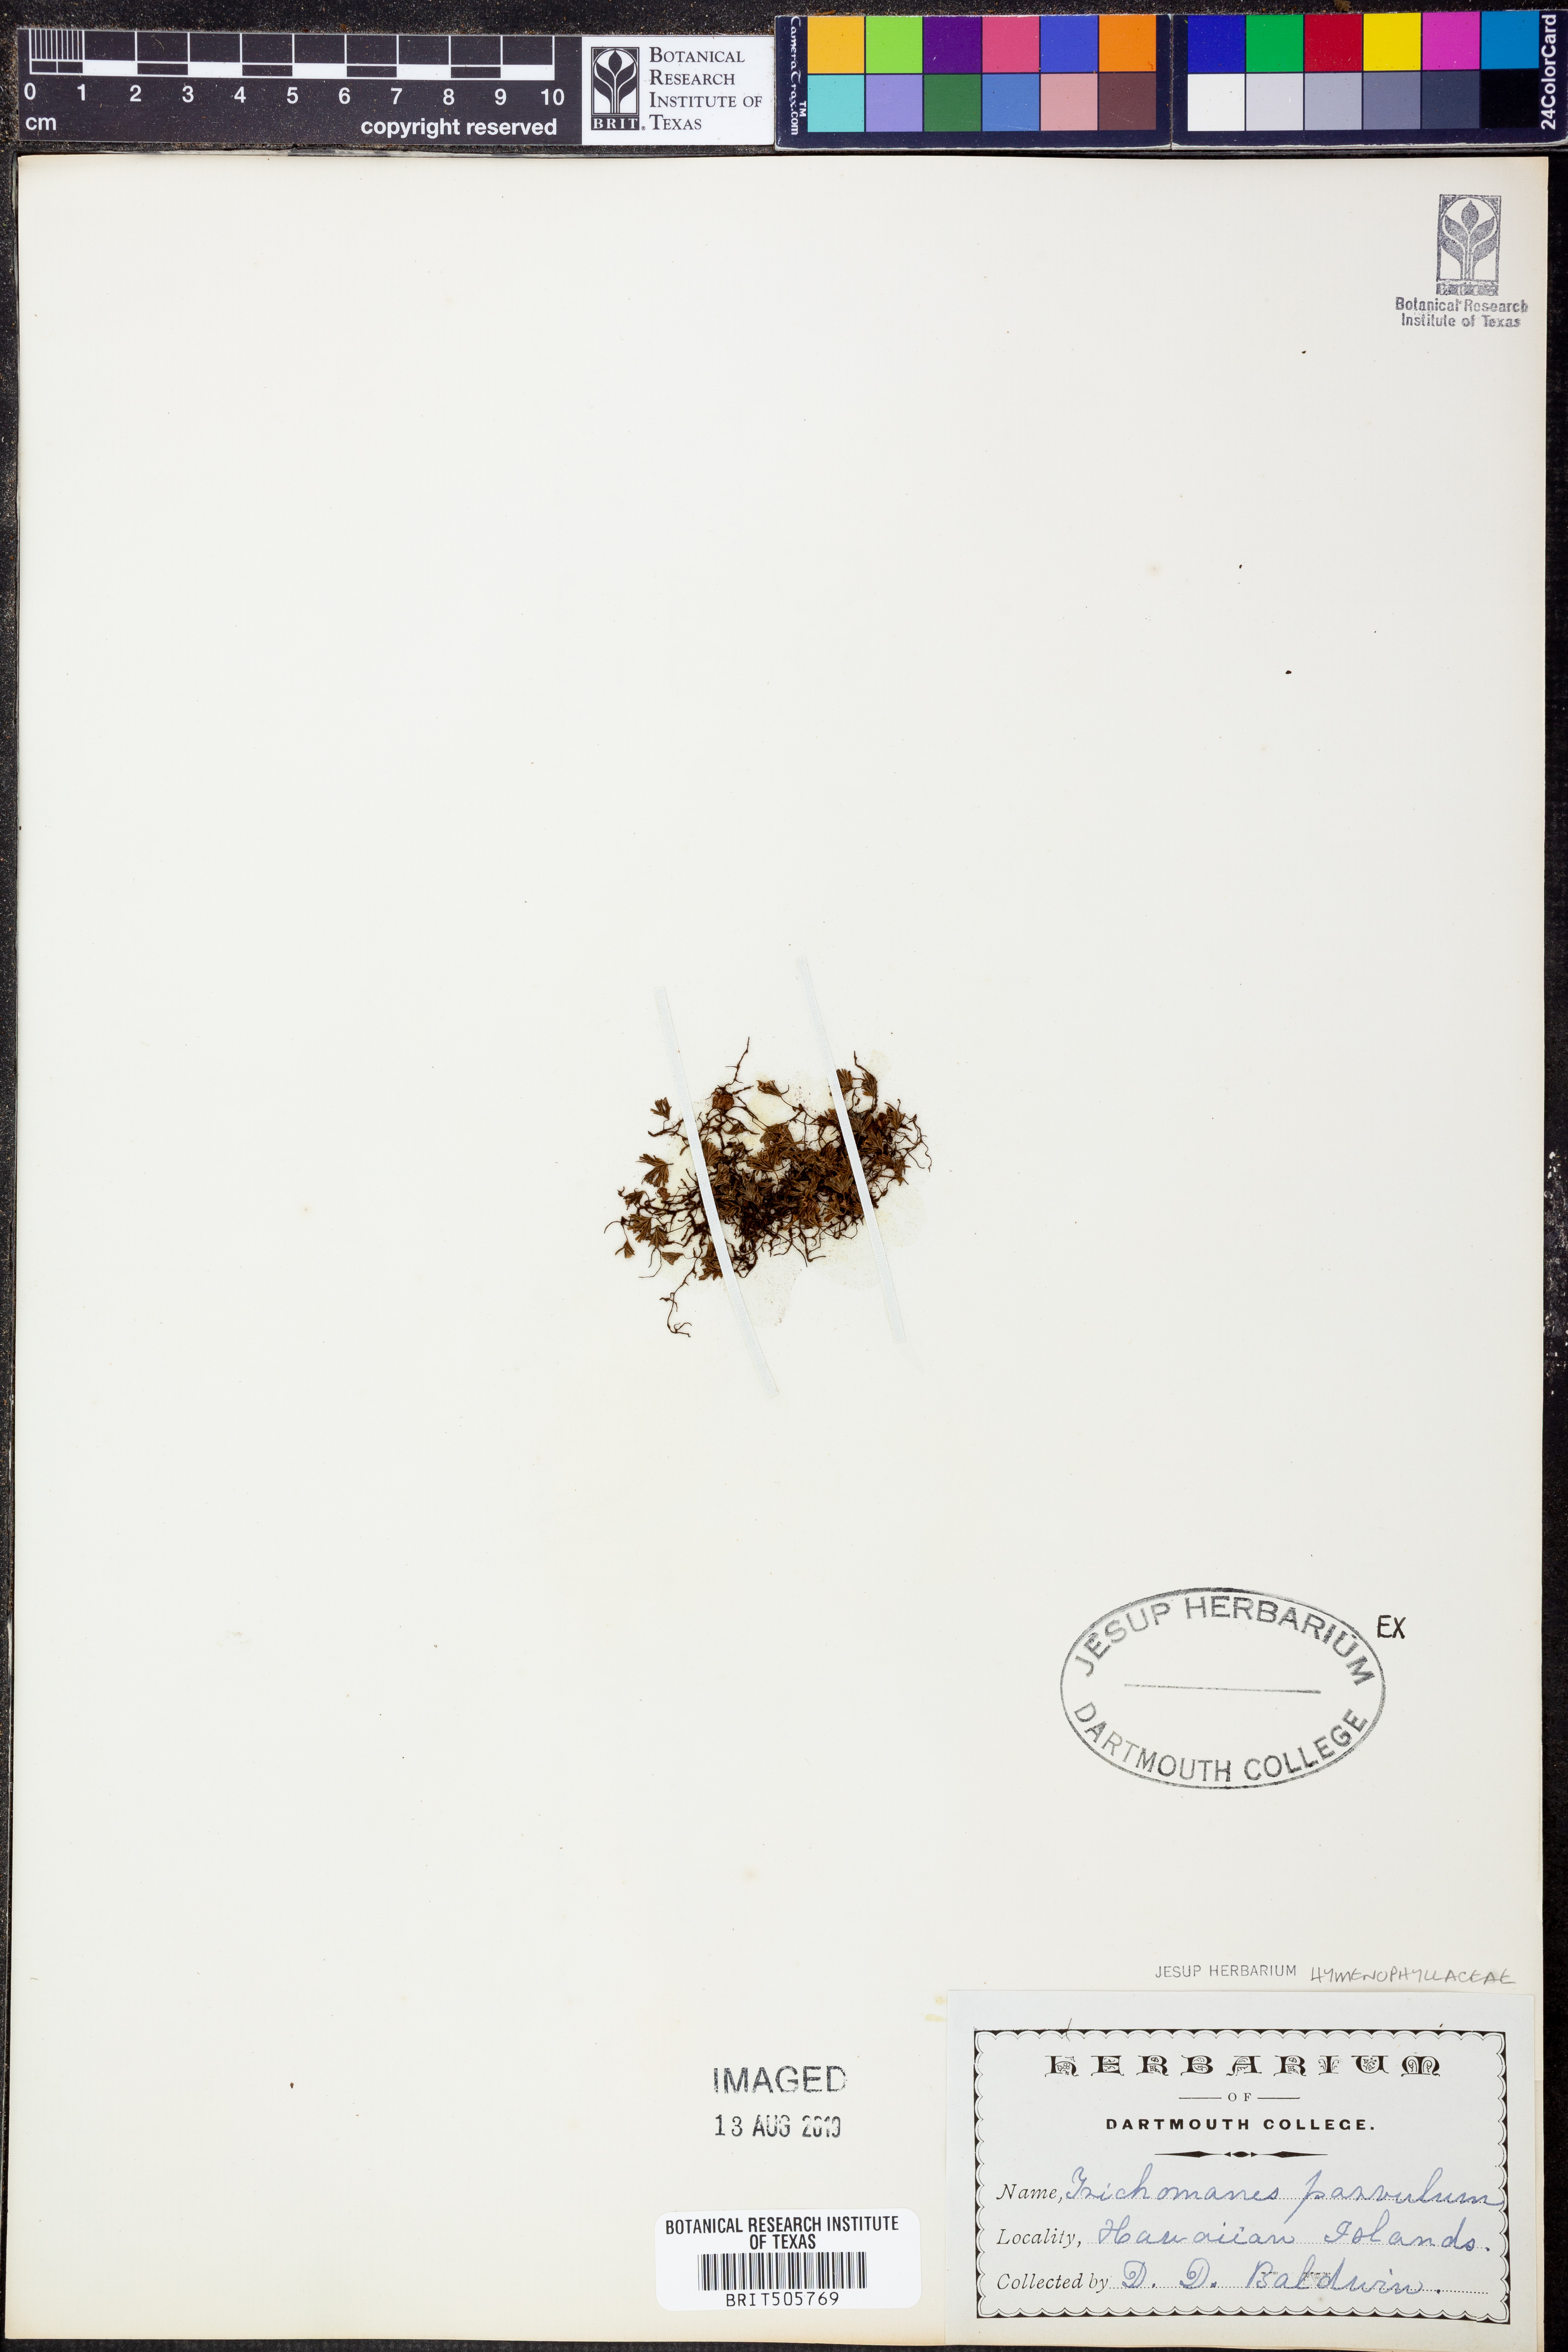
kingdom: Plantae
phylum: Tracheophyta
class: Polypodiopsida
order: Hymenophyllales
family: Hymenophyllaceae
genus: Crepidomanes
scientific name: Crepidomanes parvulum
